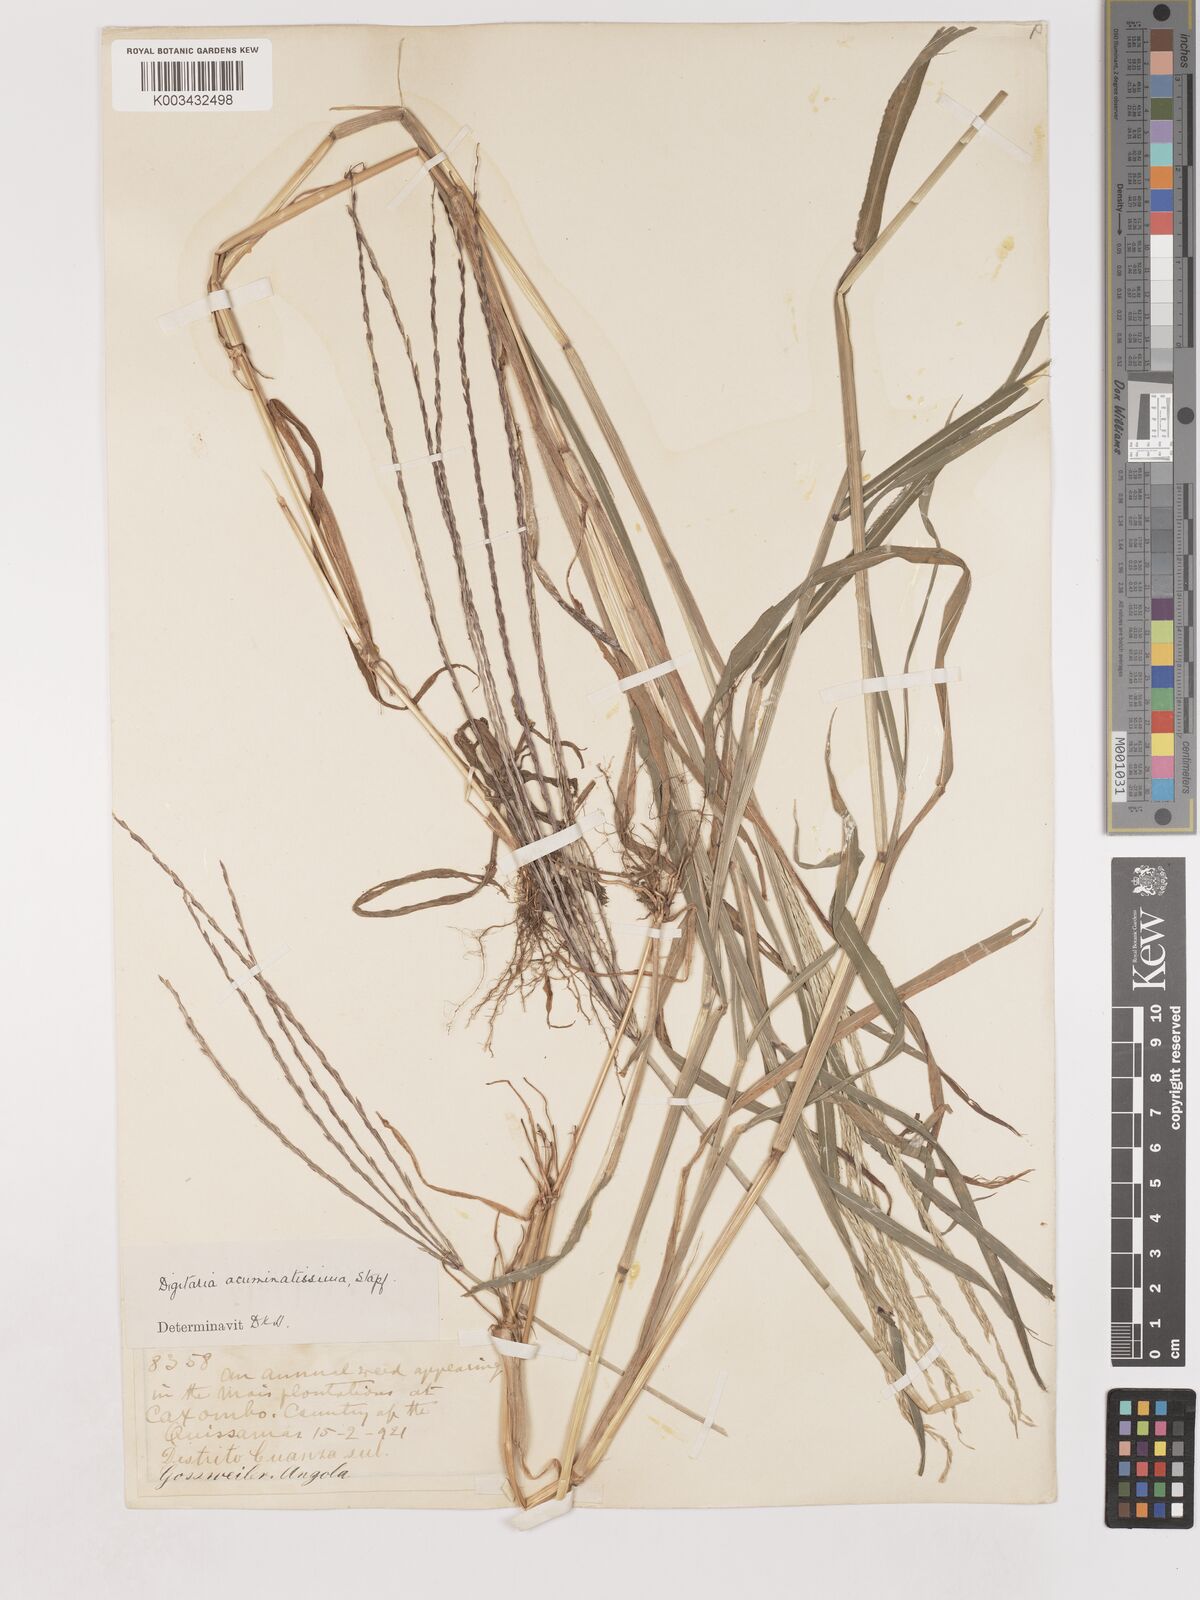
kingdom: Plantae
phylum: Tracheophyta
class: Liliopsida
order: Poales
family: Poaceae
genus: Digitaria
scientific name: Digitaria acuminatissima
